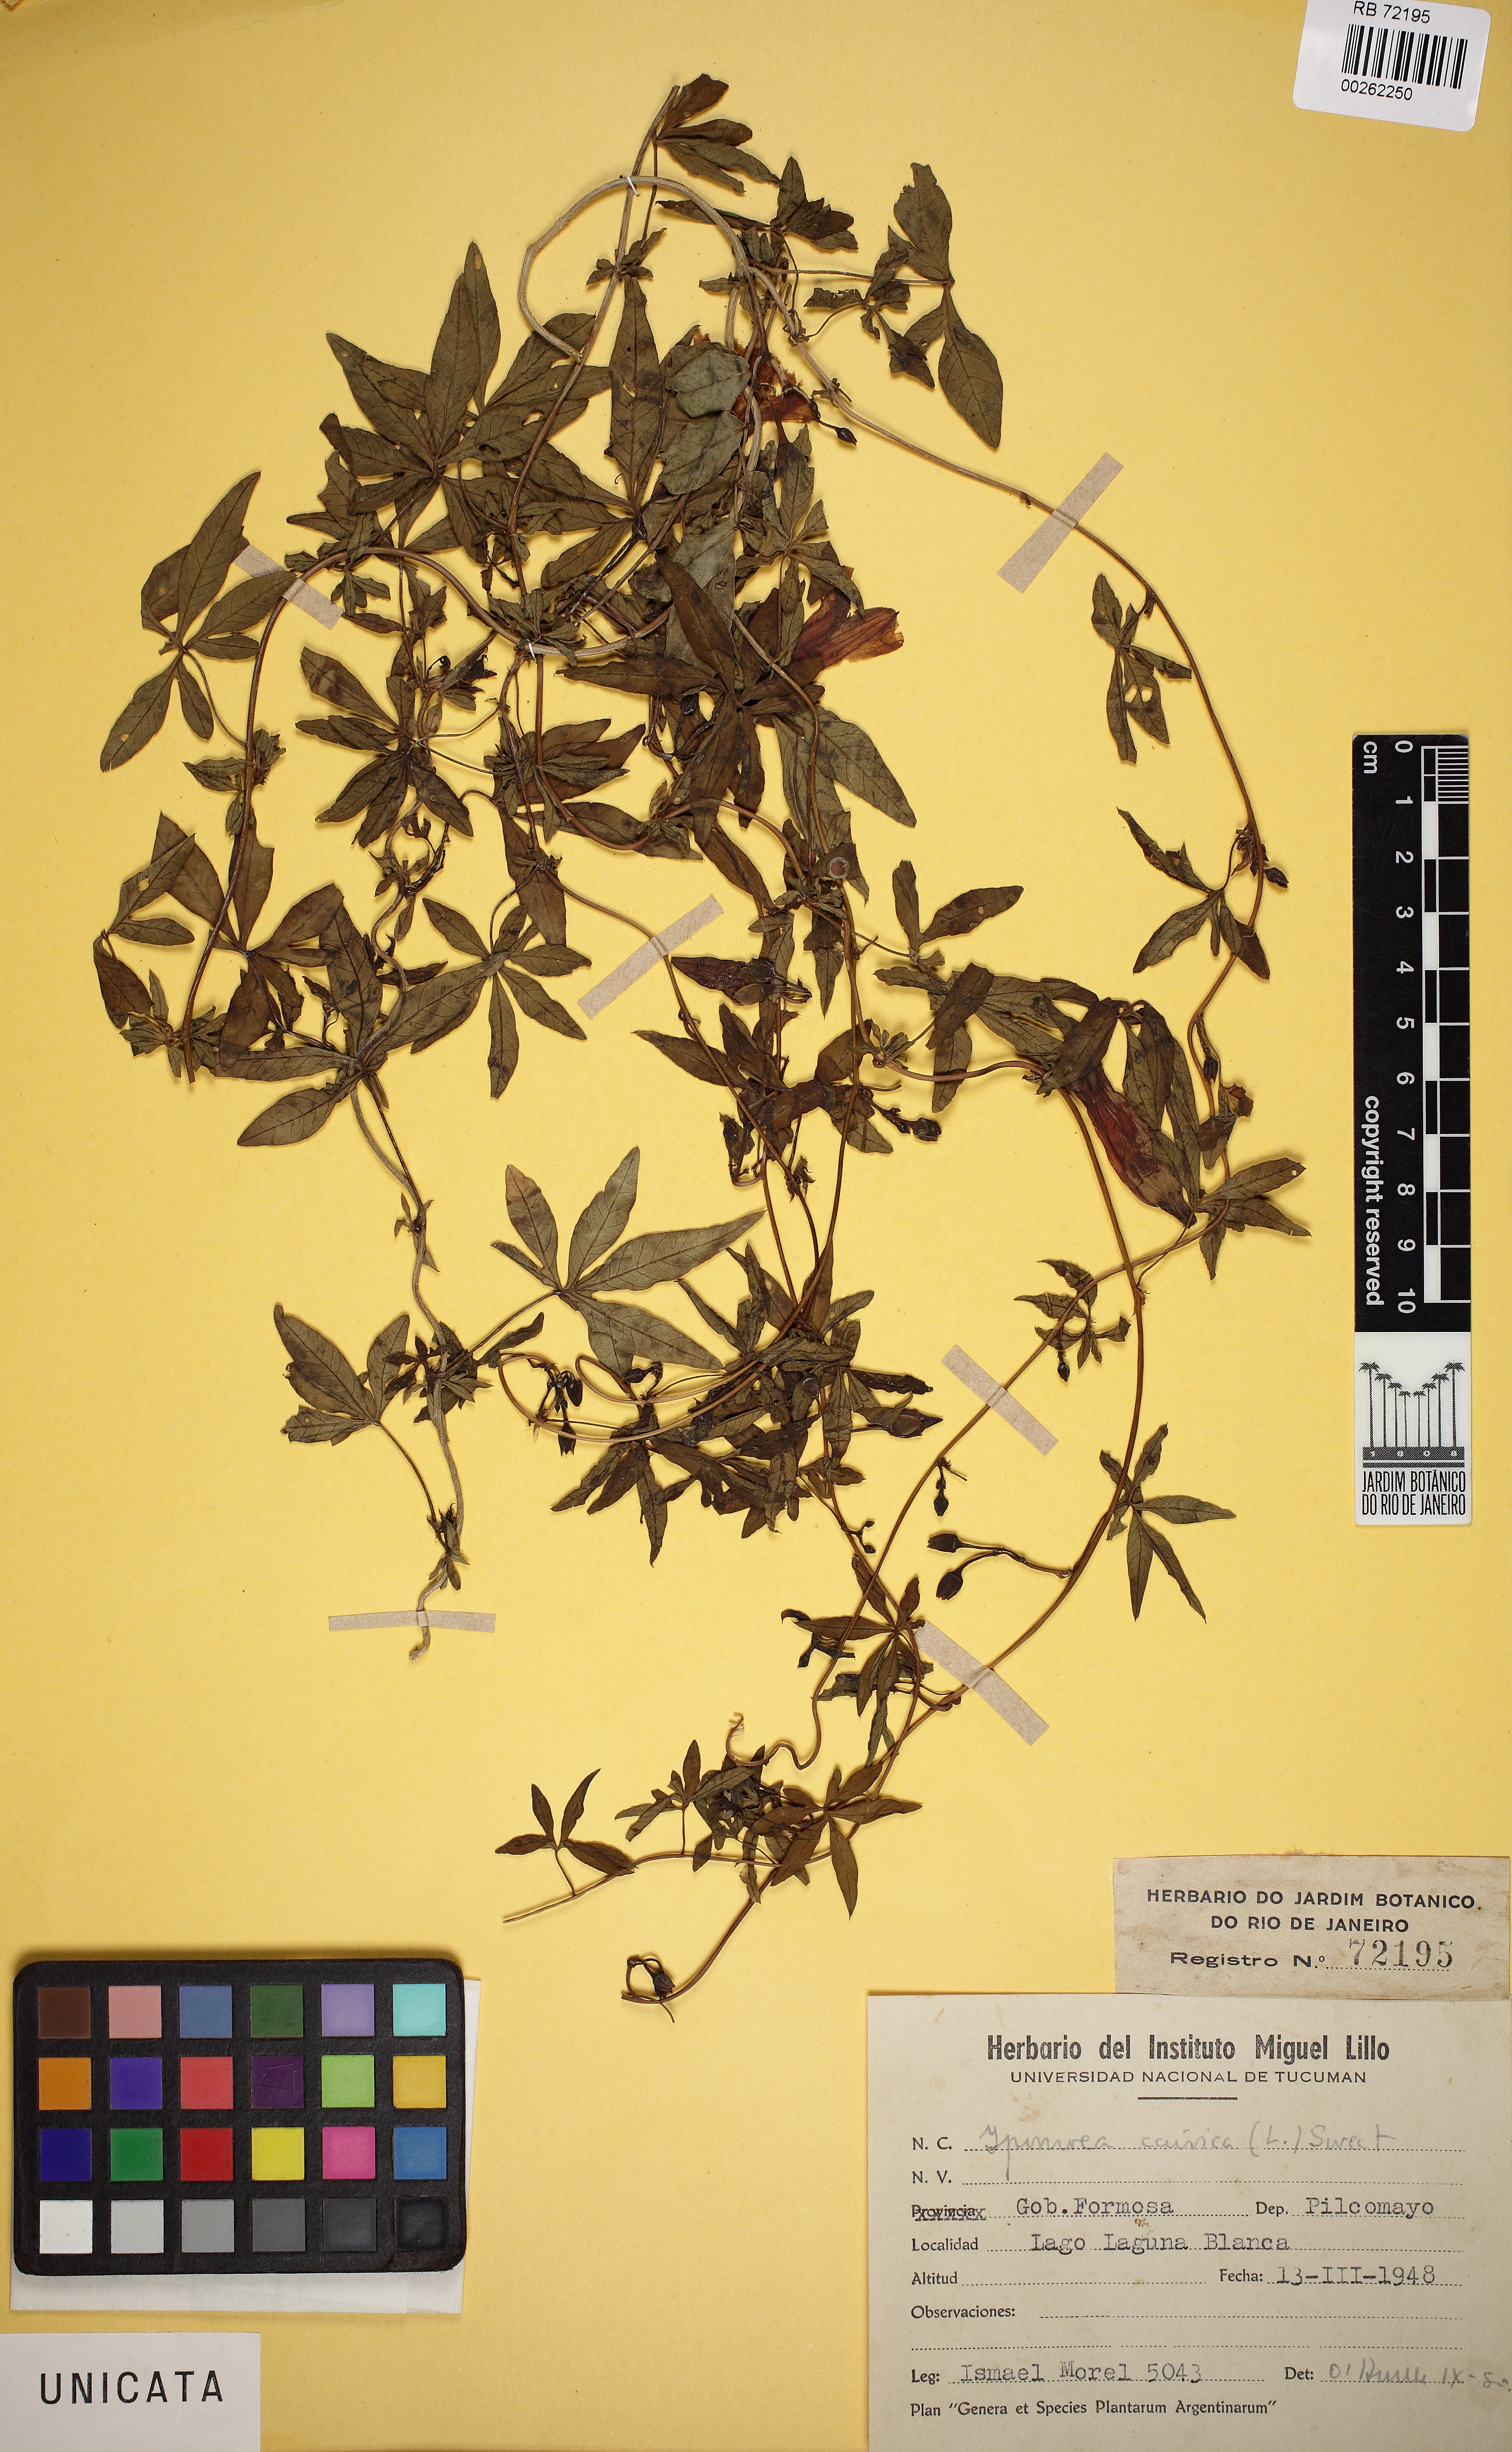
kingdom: Plantae
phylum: Tracheophyta
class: Magnoliopsida
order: Solanales
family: Convolvulaceae
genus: Ipomoea
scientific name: Ipomoea cairica
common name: Mile a minute vine
